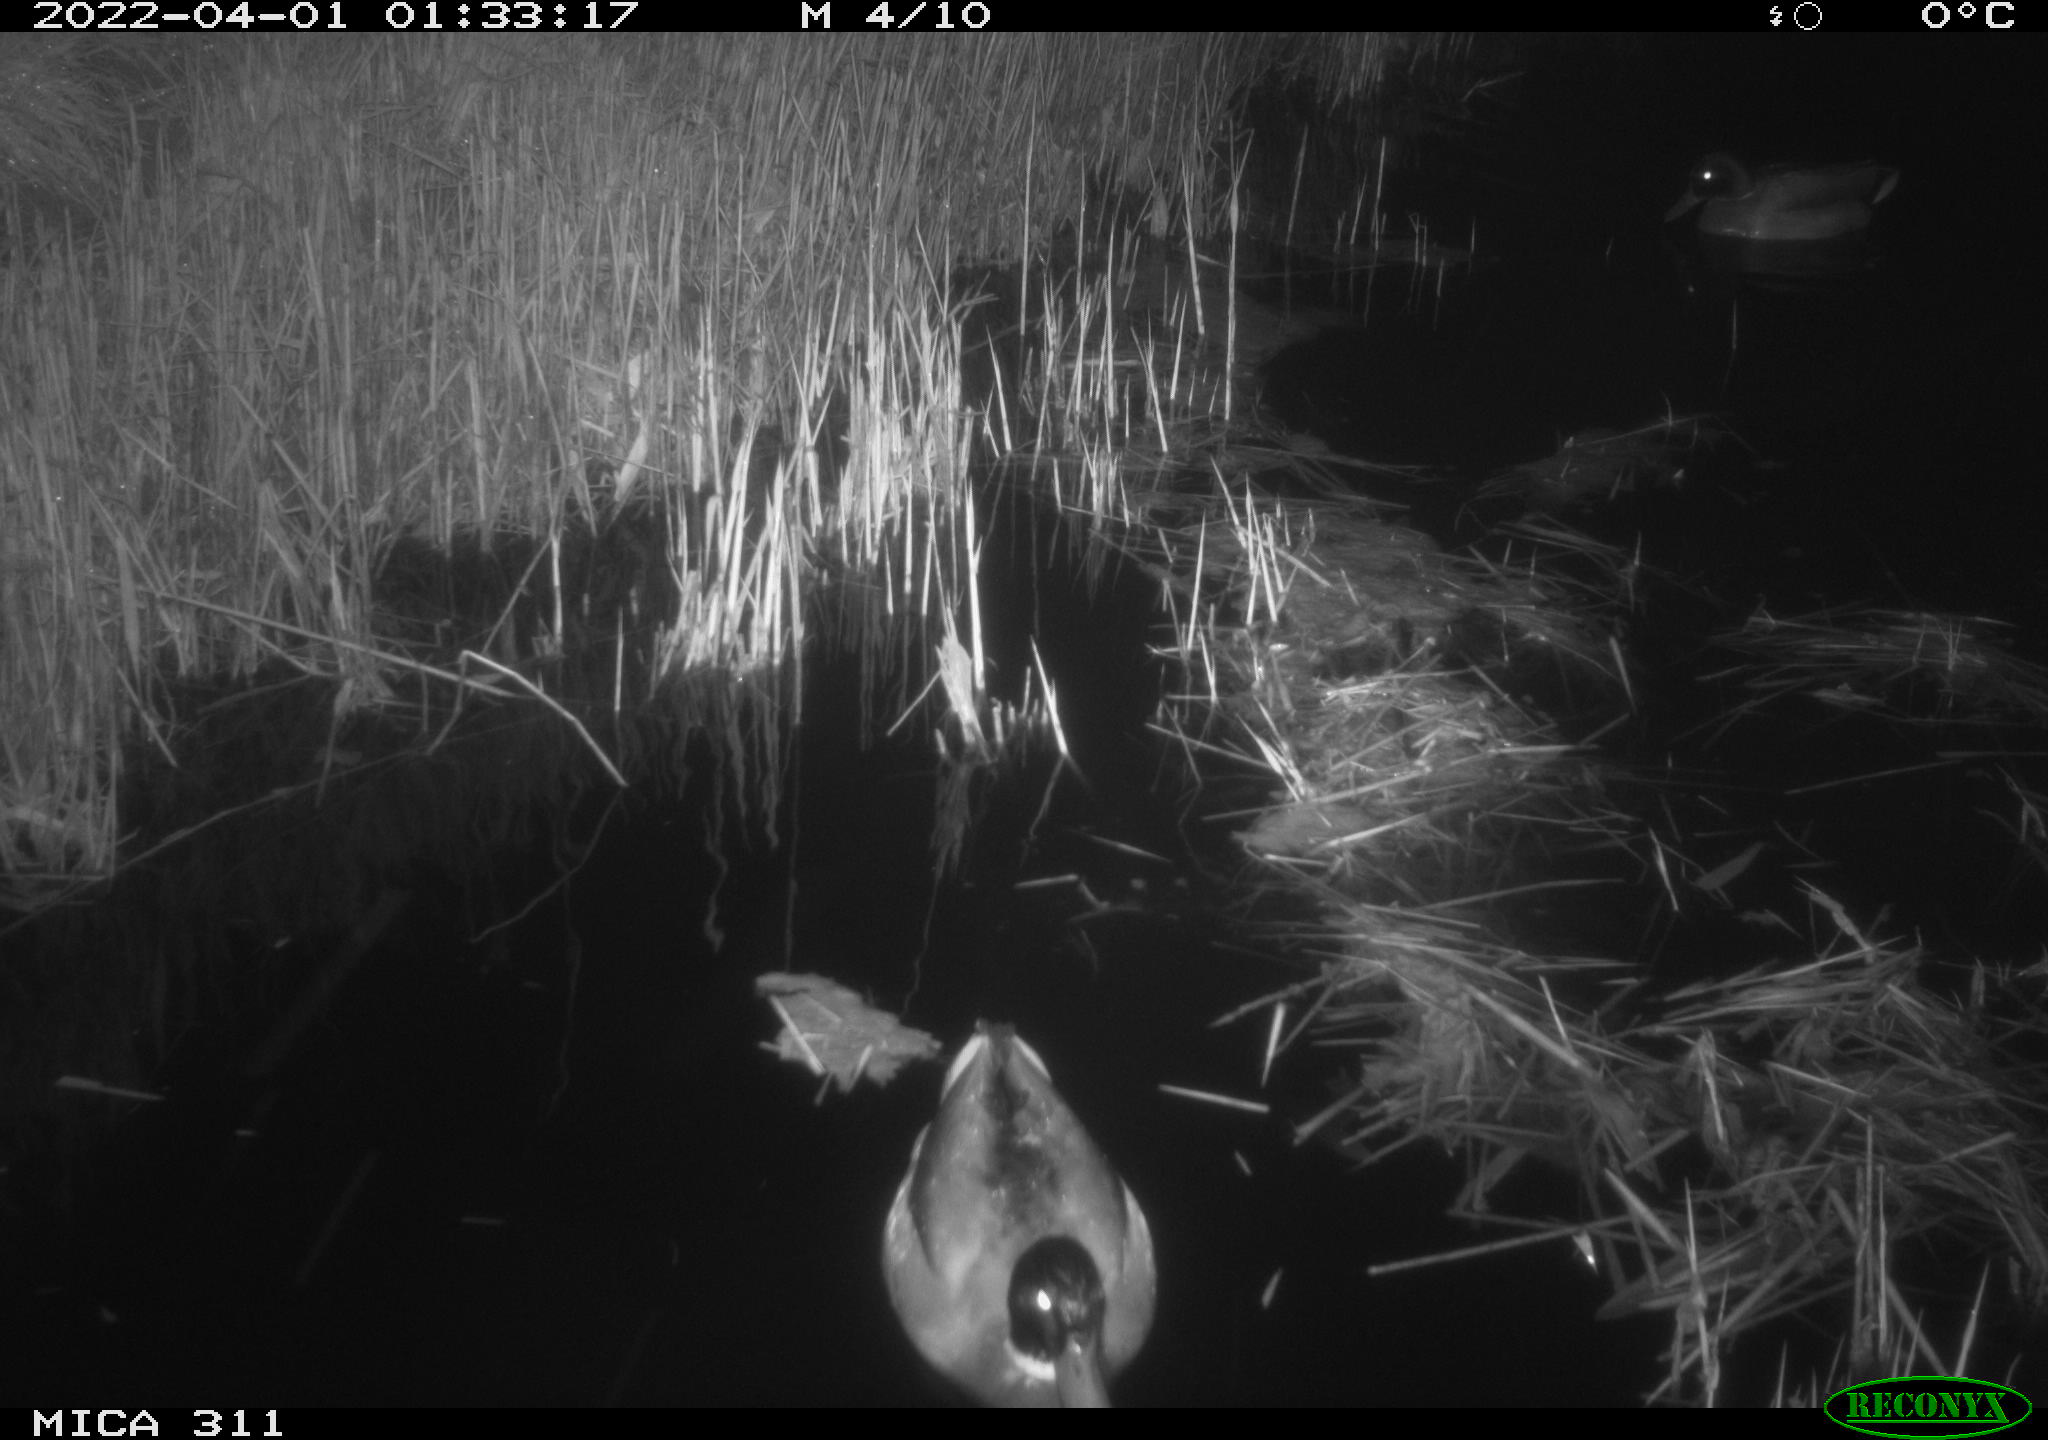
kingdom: Animalia
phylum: Chordata
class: Aves
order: Anseriformes
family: Anatidae
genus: Anas
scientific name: Anas platyrhynchos
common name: Mallard
